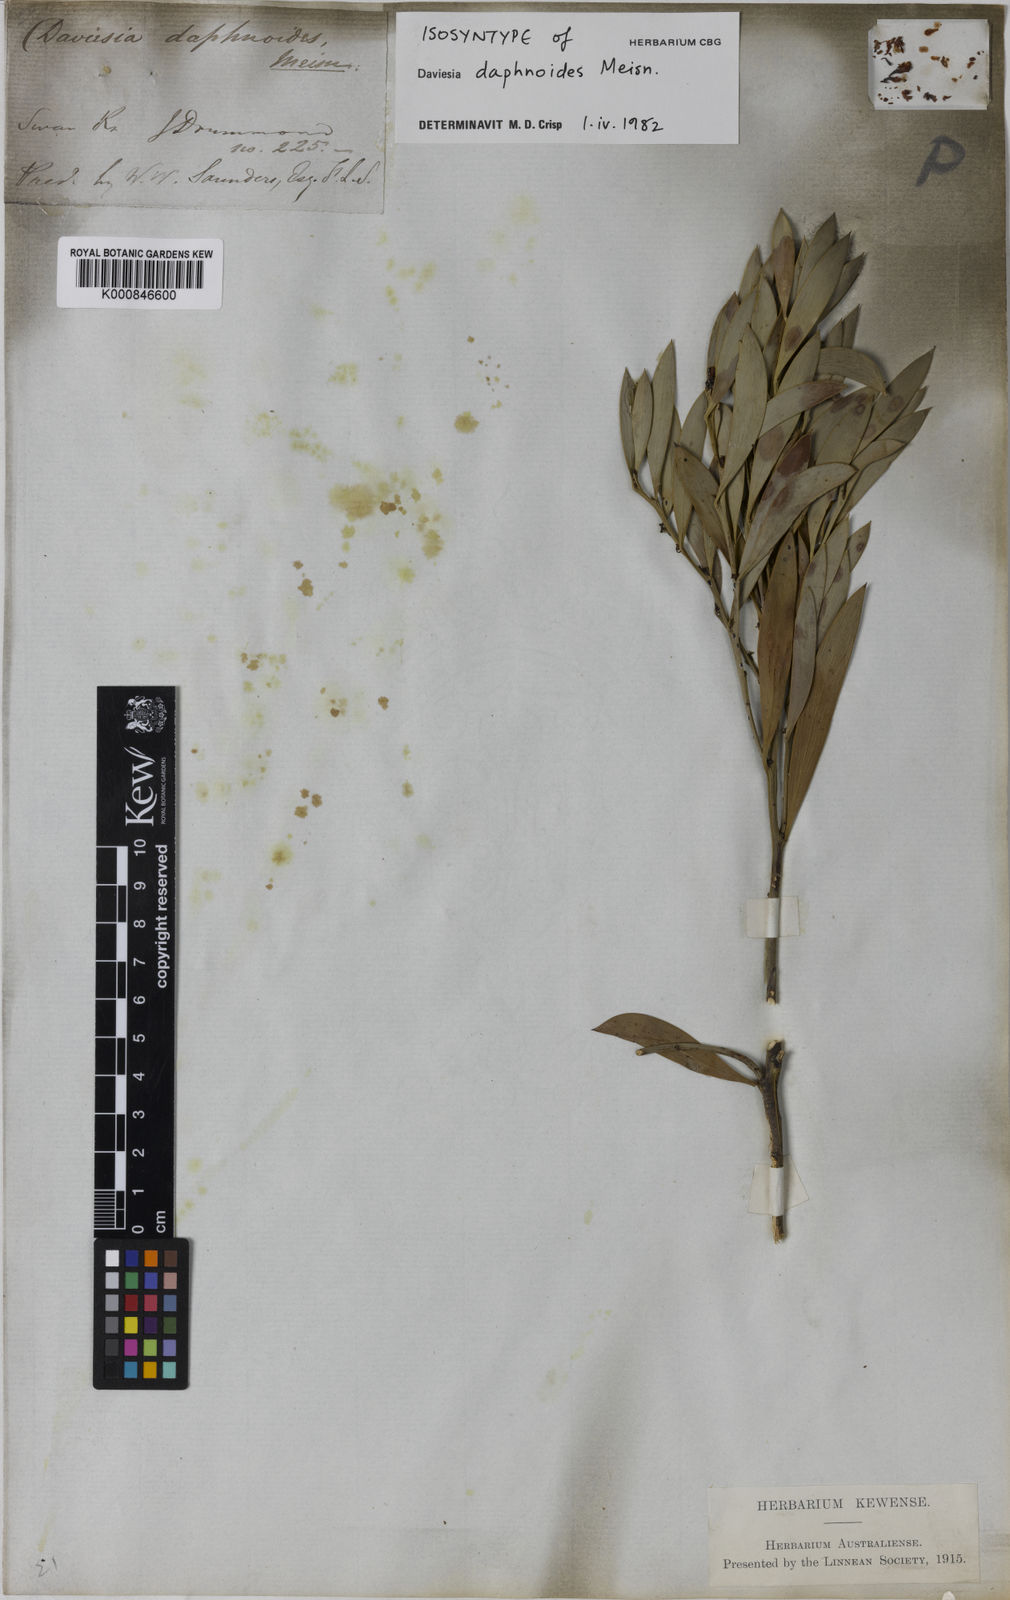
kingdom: Plantae
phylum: Tracheophyta
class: Magnoliopsida
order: Fabales
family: Fabaceae
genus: Daviesia
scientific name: Daviesia daphnoides
